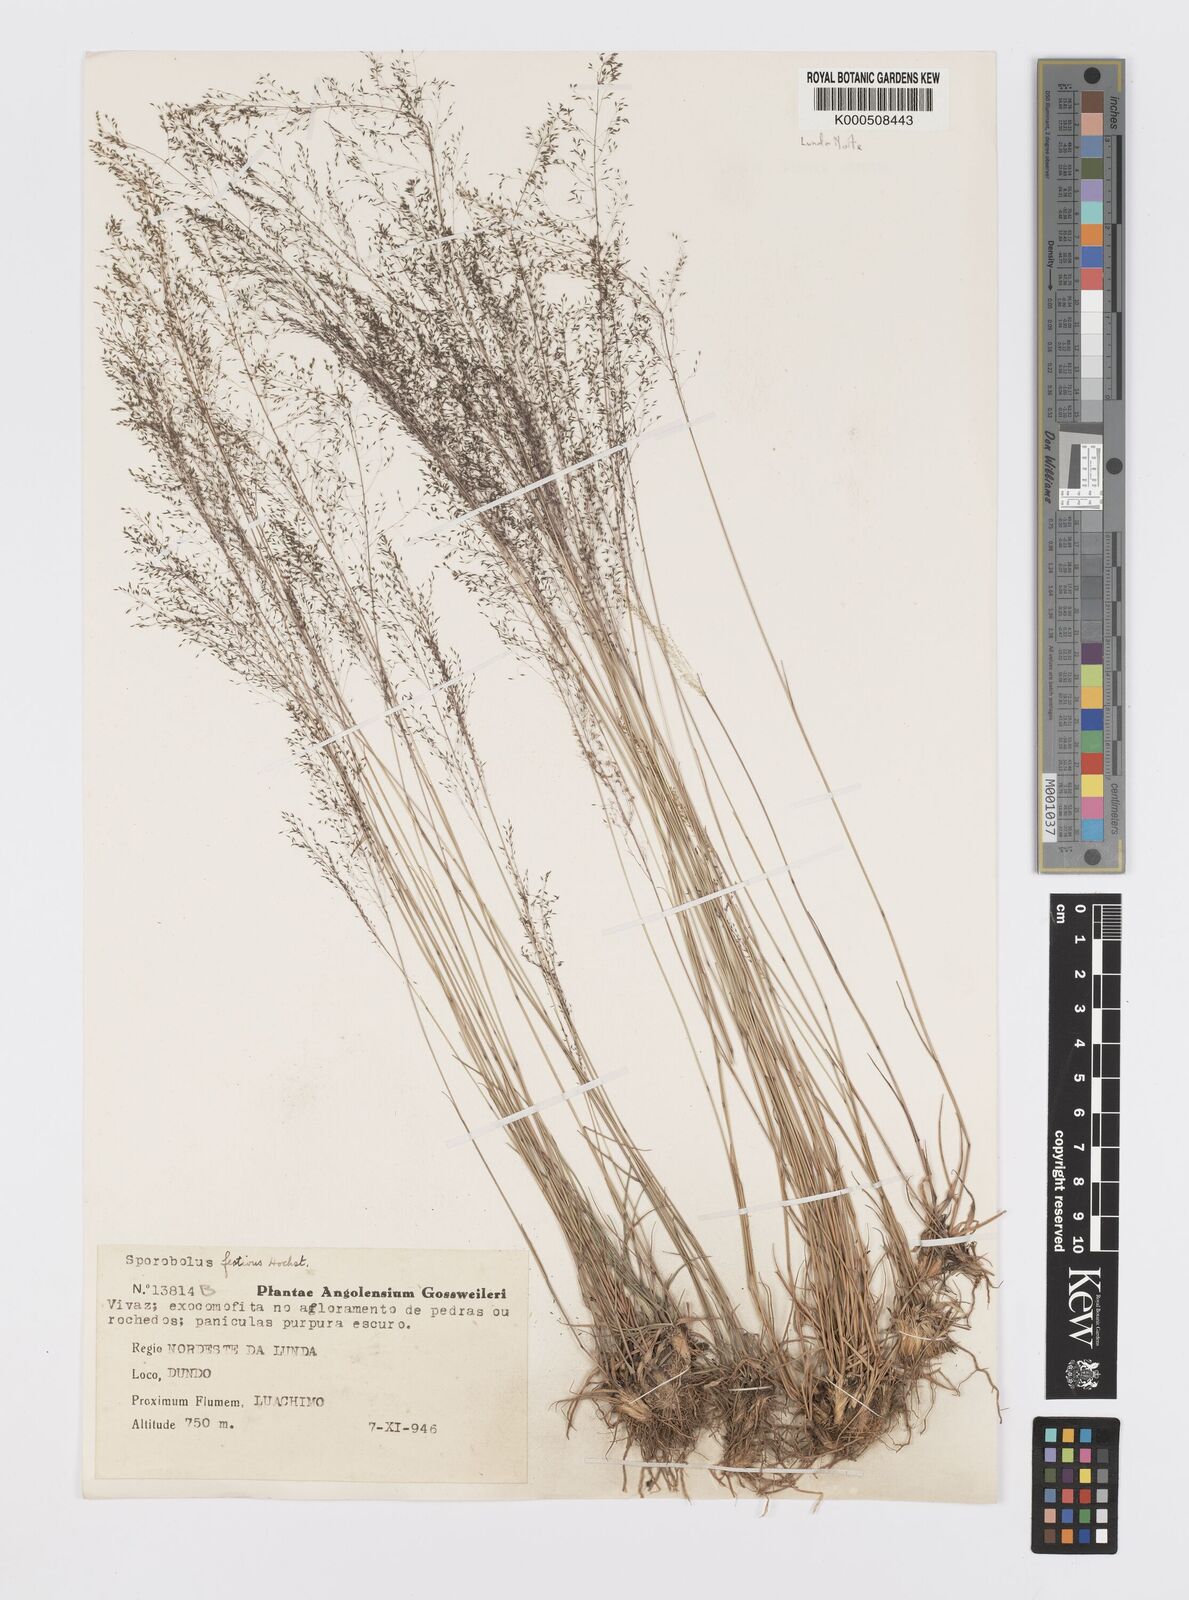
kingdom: Plantae
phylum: Tracheophyta
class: Liliopsida
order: Poales
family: Poaceae
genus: Sporobolus
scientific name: Sporobolus festivus
